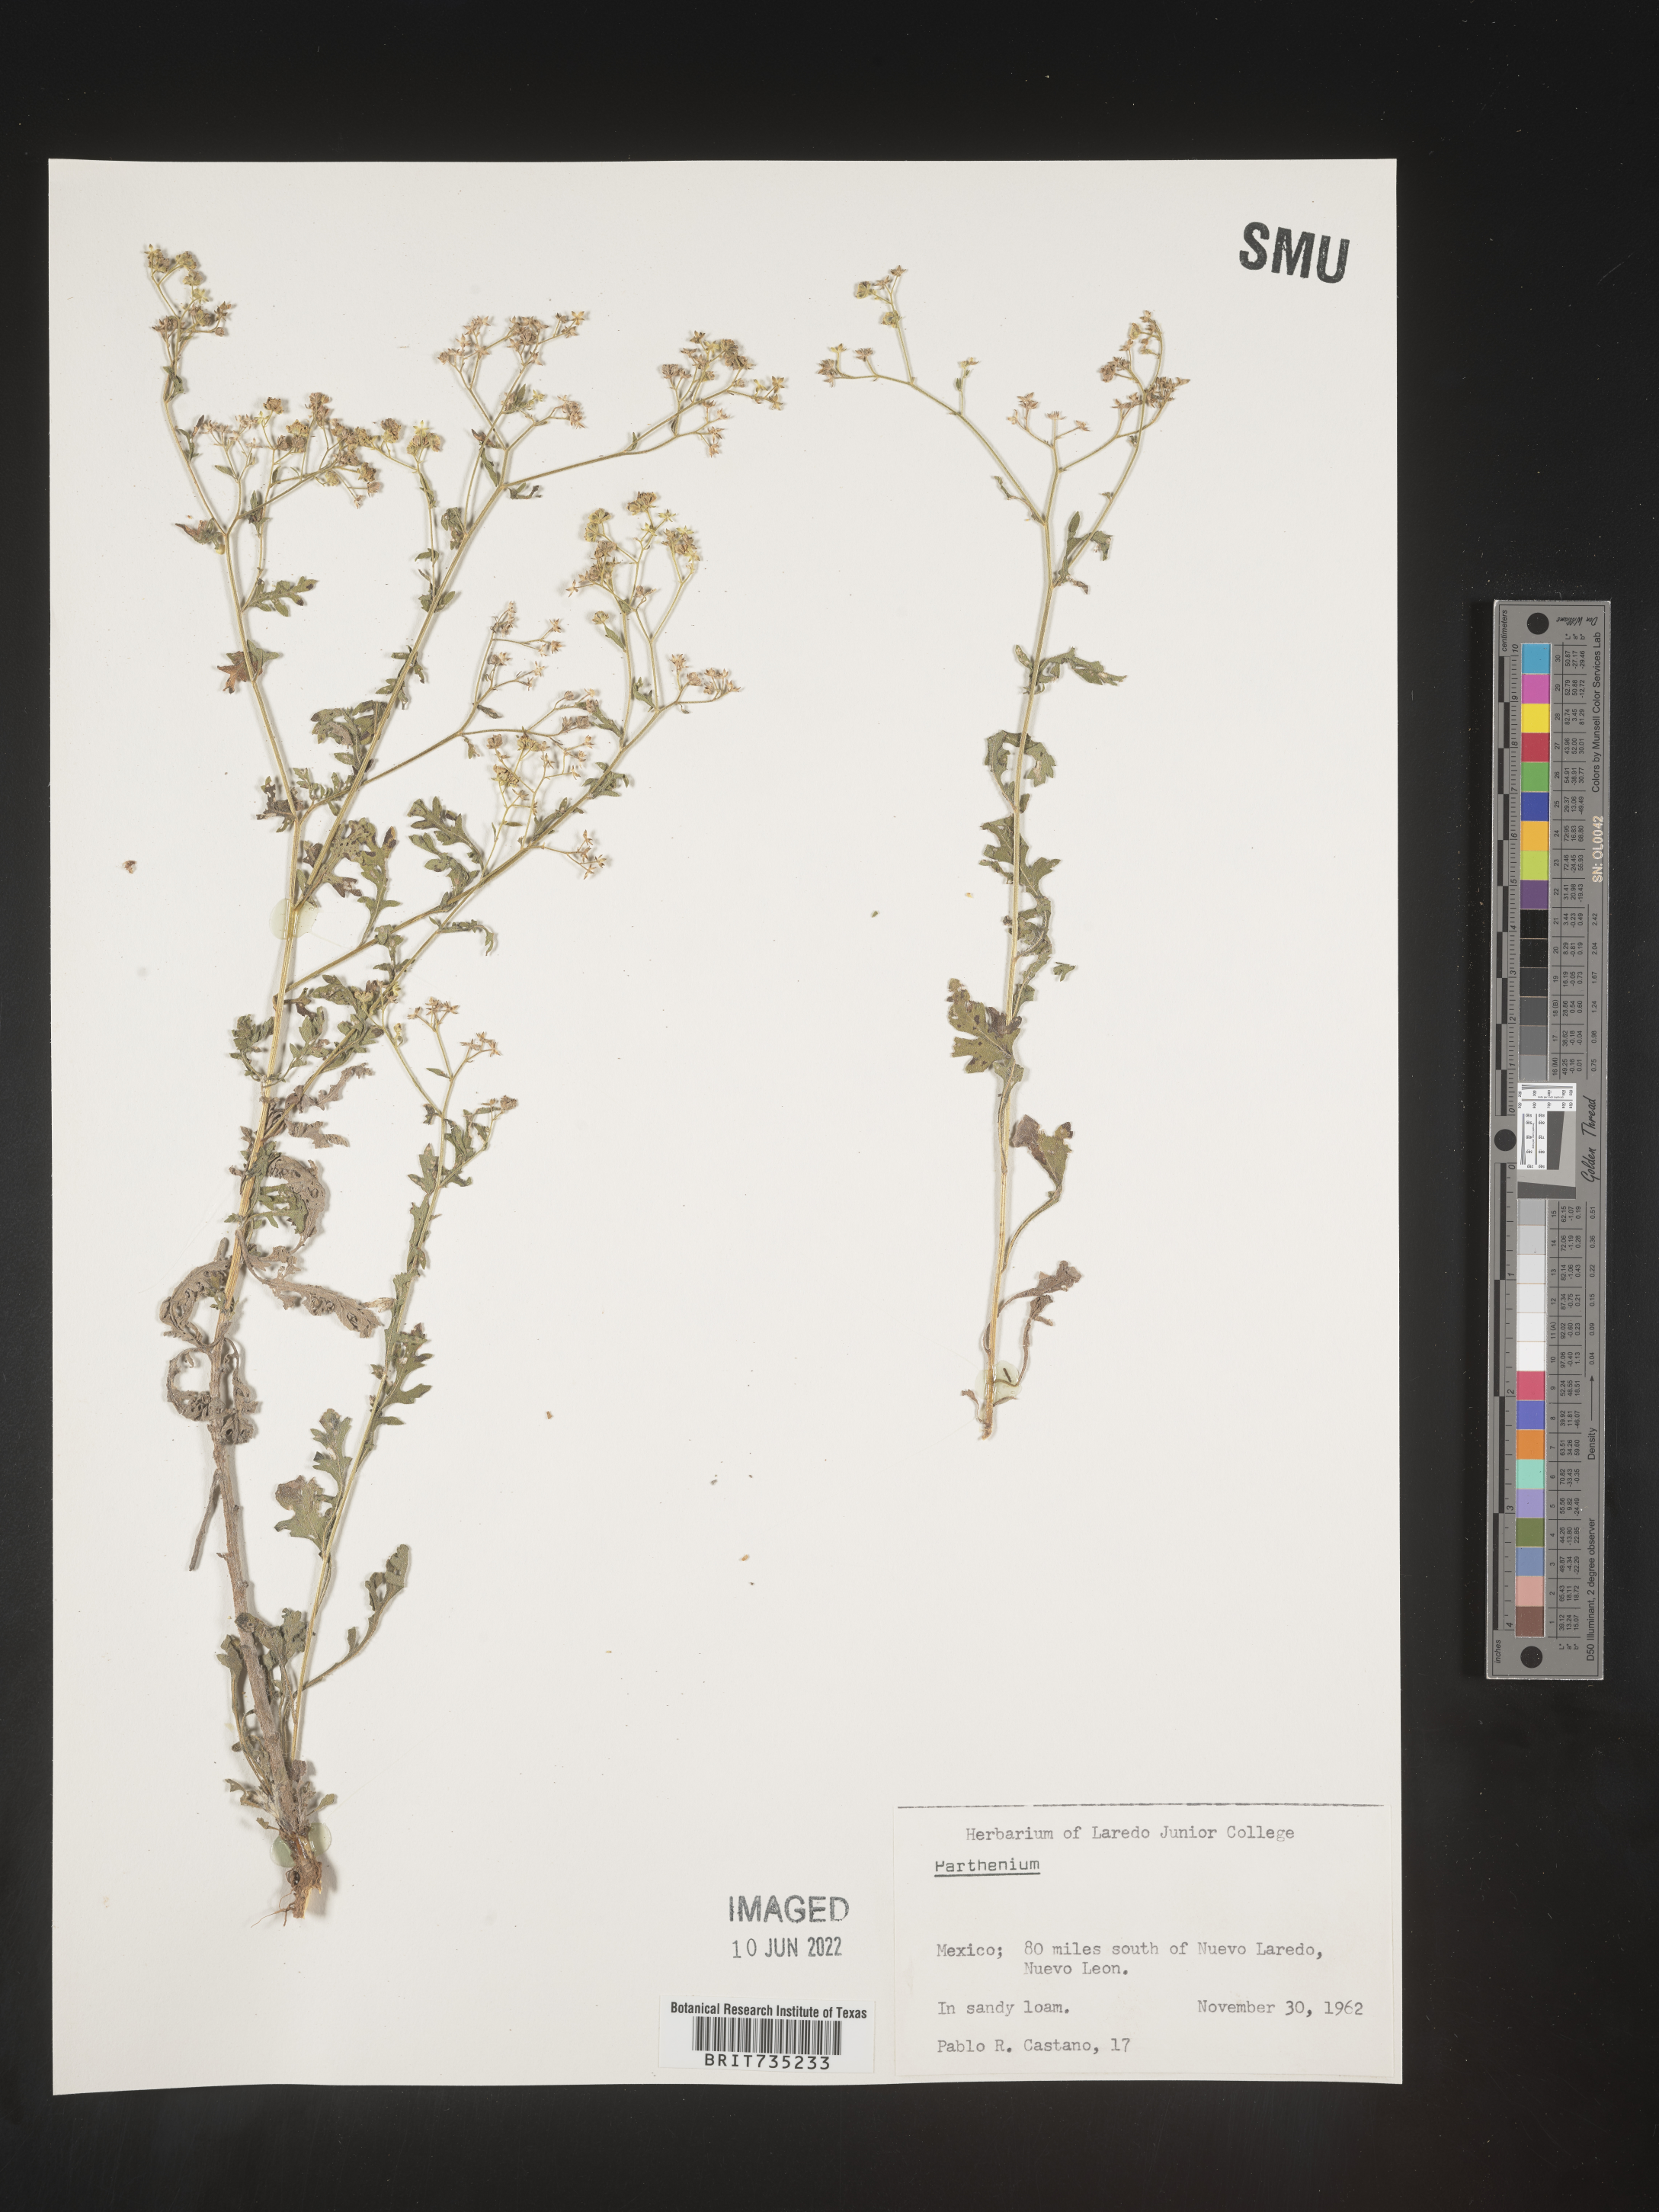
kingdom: Plantae
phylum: Tracheophyta
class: Magnoliopsida
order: Asterales
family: Asteraceae
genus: Parthenium
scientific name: Parthenium
